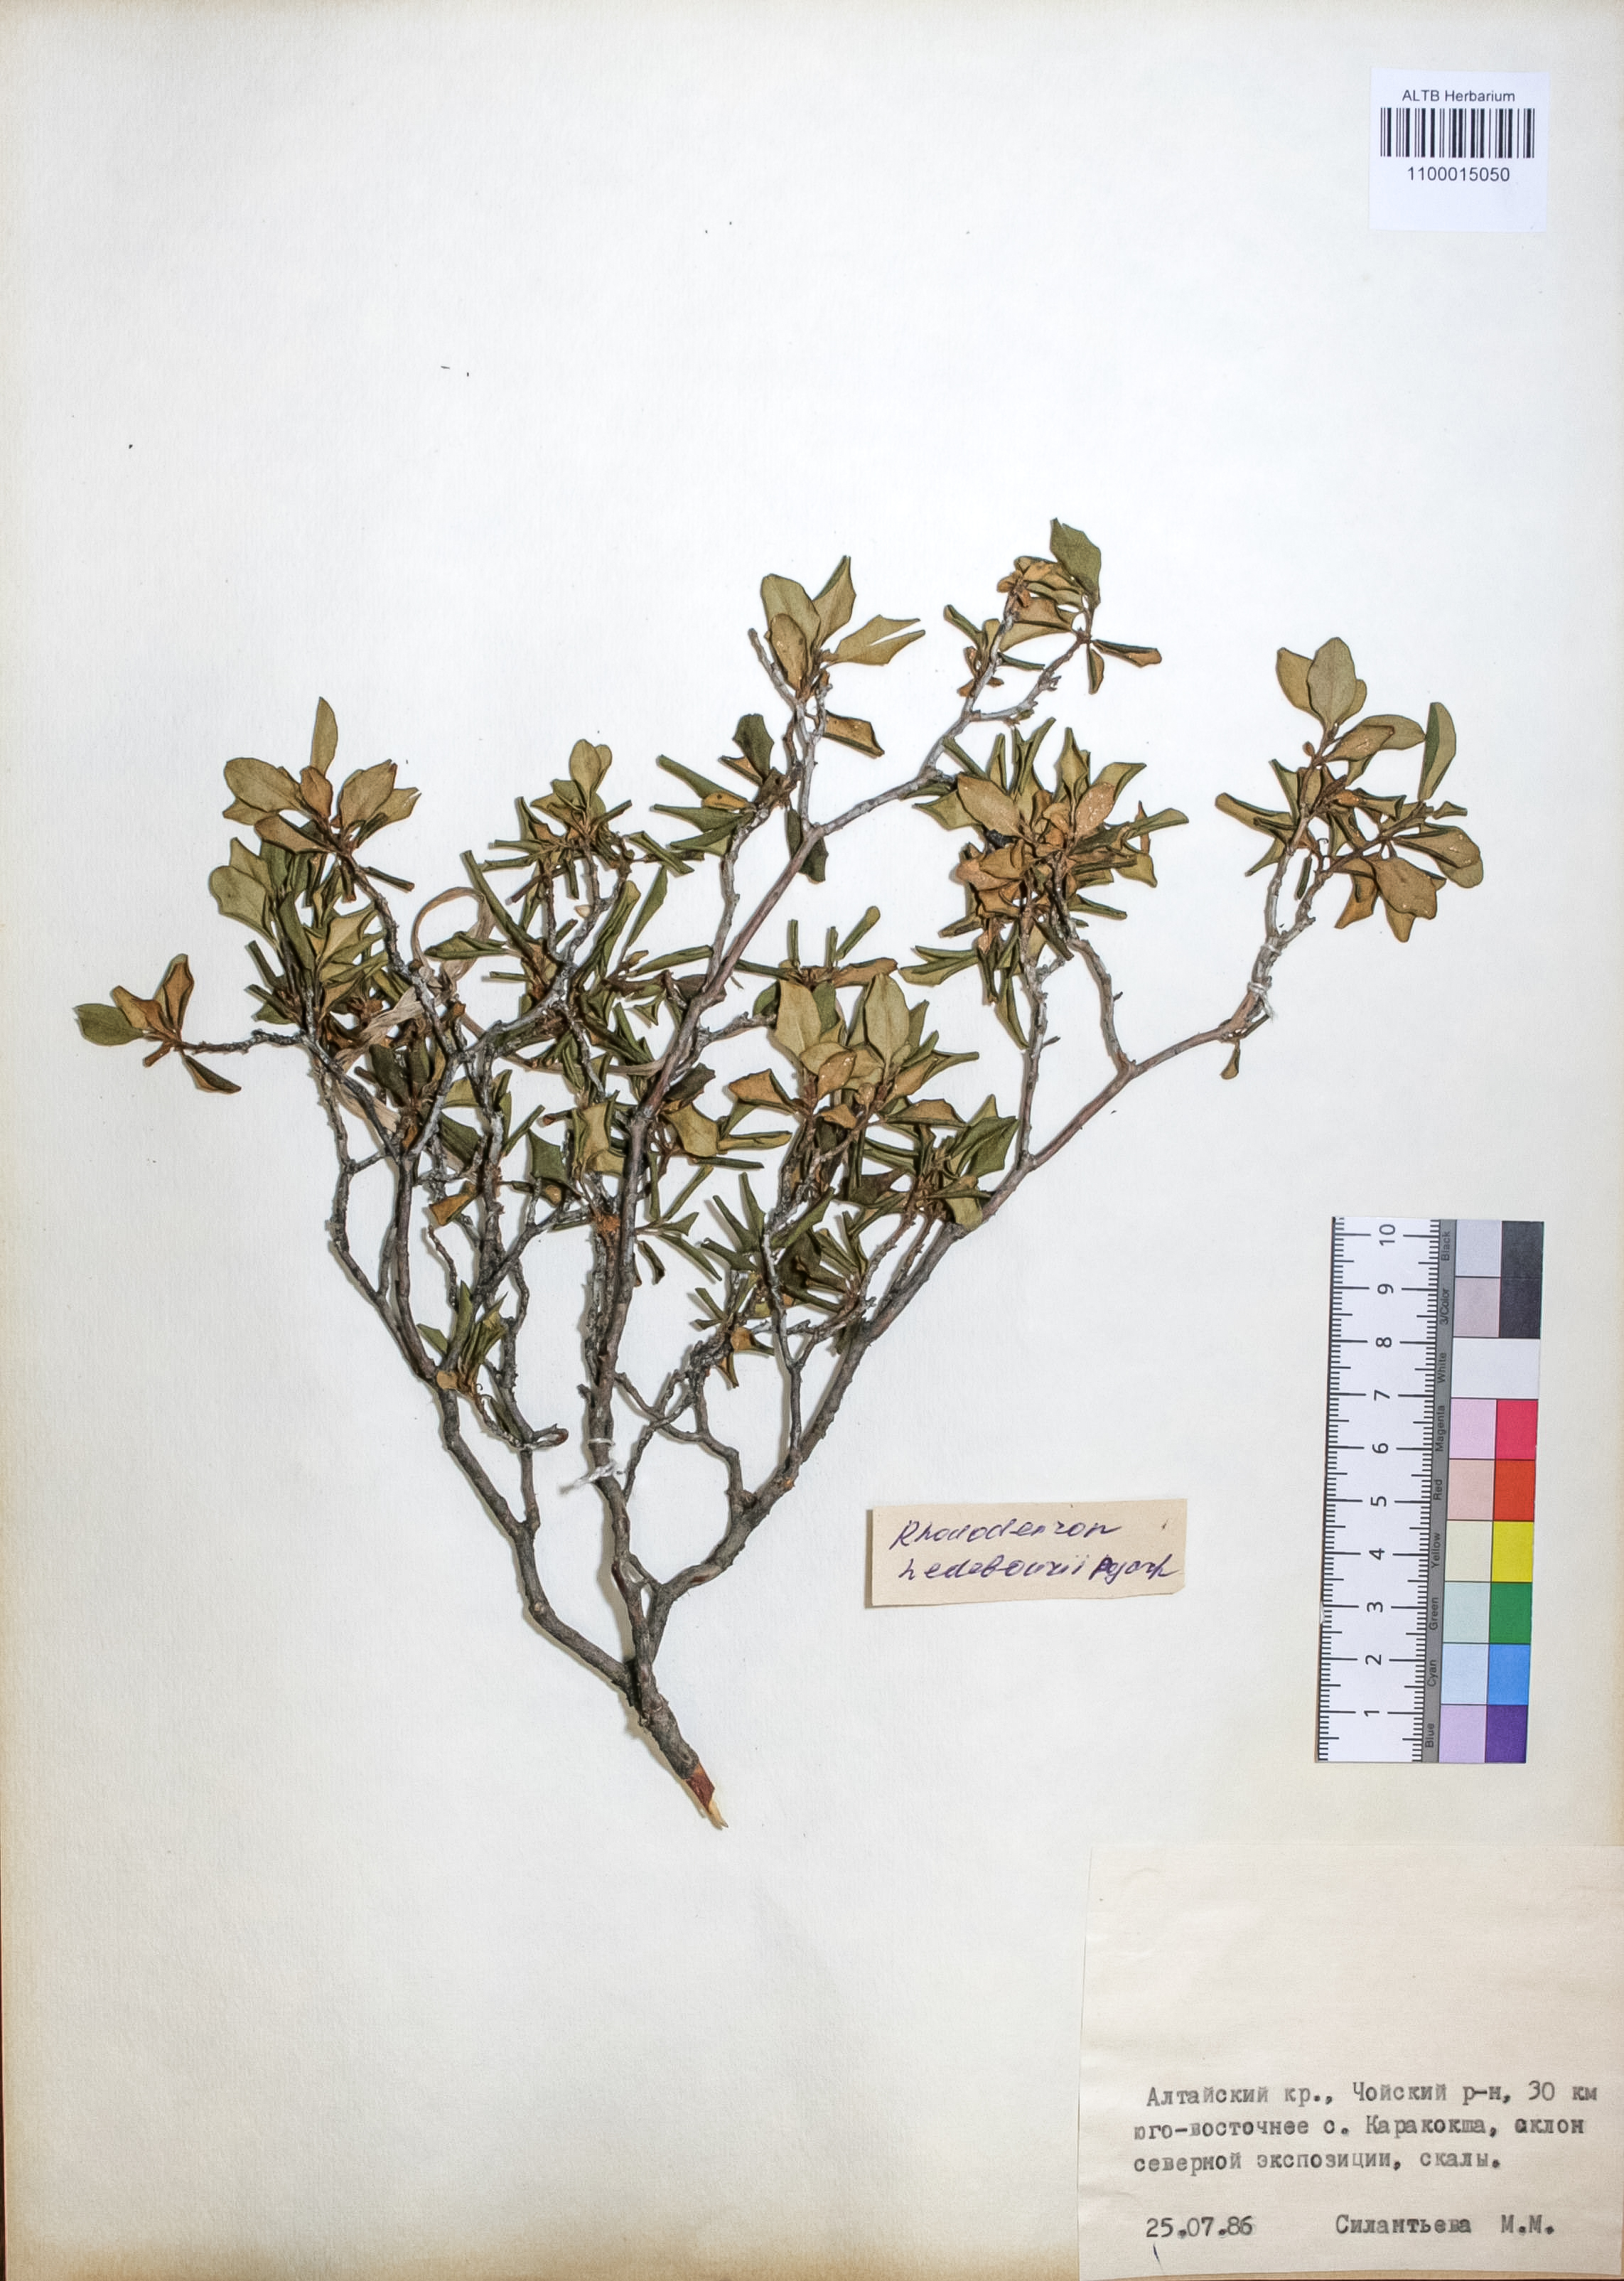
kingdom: Plantae
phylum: Tracheophyta
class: Magnoliopsida
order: Ericales
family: Ericaceae
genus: Rhododendron
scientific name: Rhododendron dauricum
